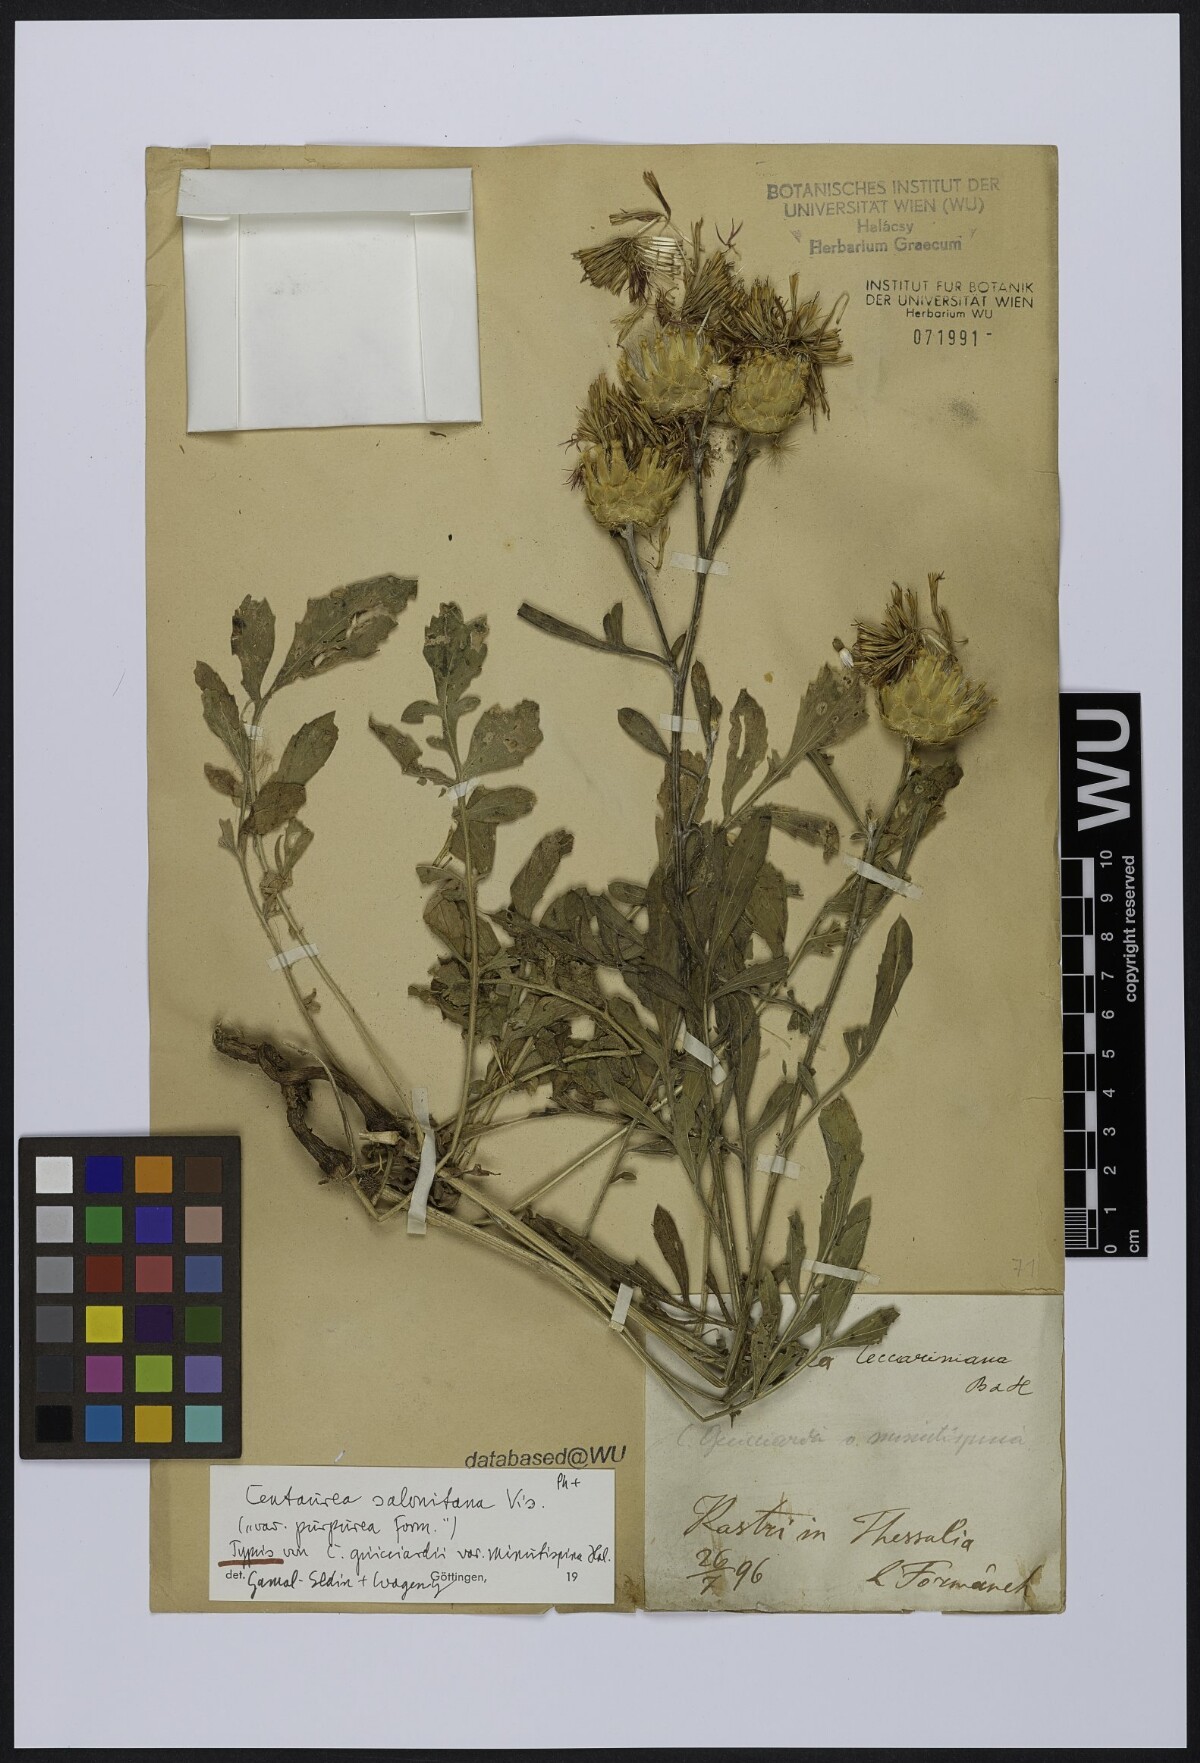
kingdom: Plantae
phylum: Tracheophyta
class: Magnoliopsida
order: Asterales
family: Asteraceae
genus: Centaurea
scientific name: Centaurea graeca
